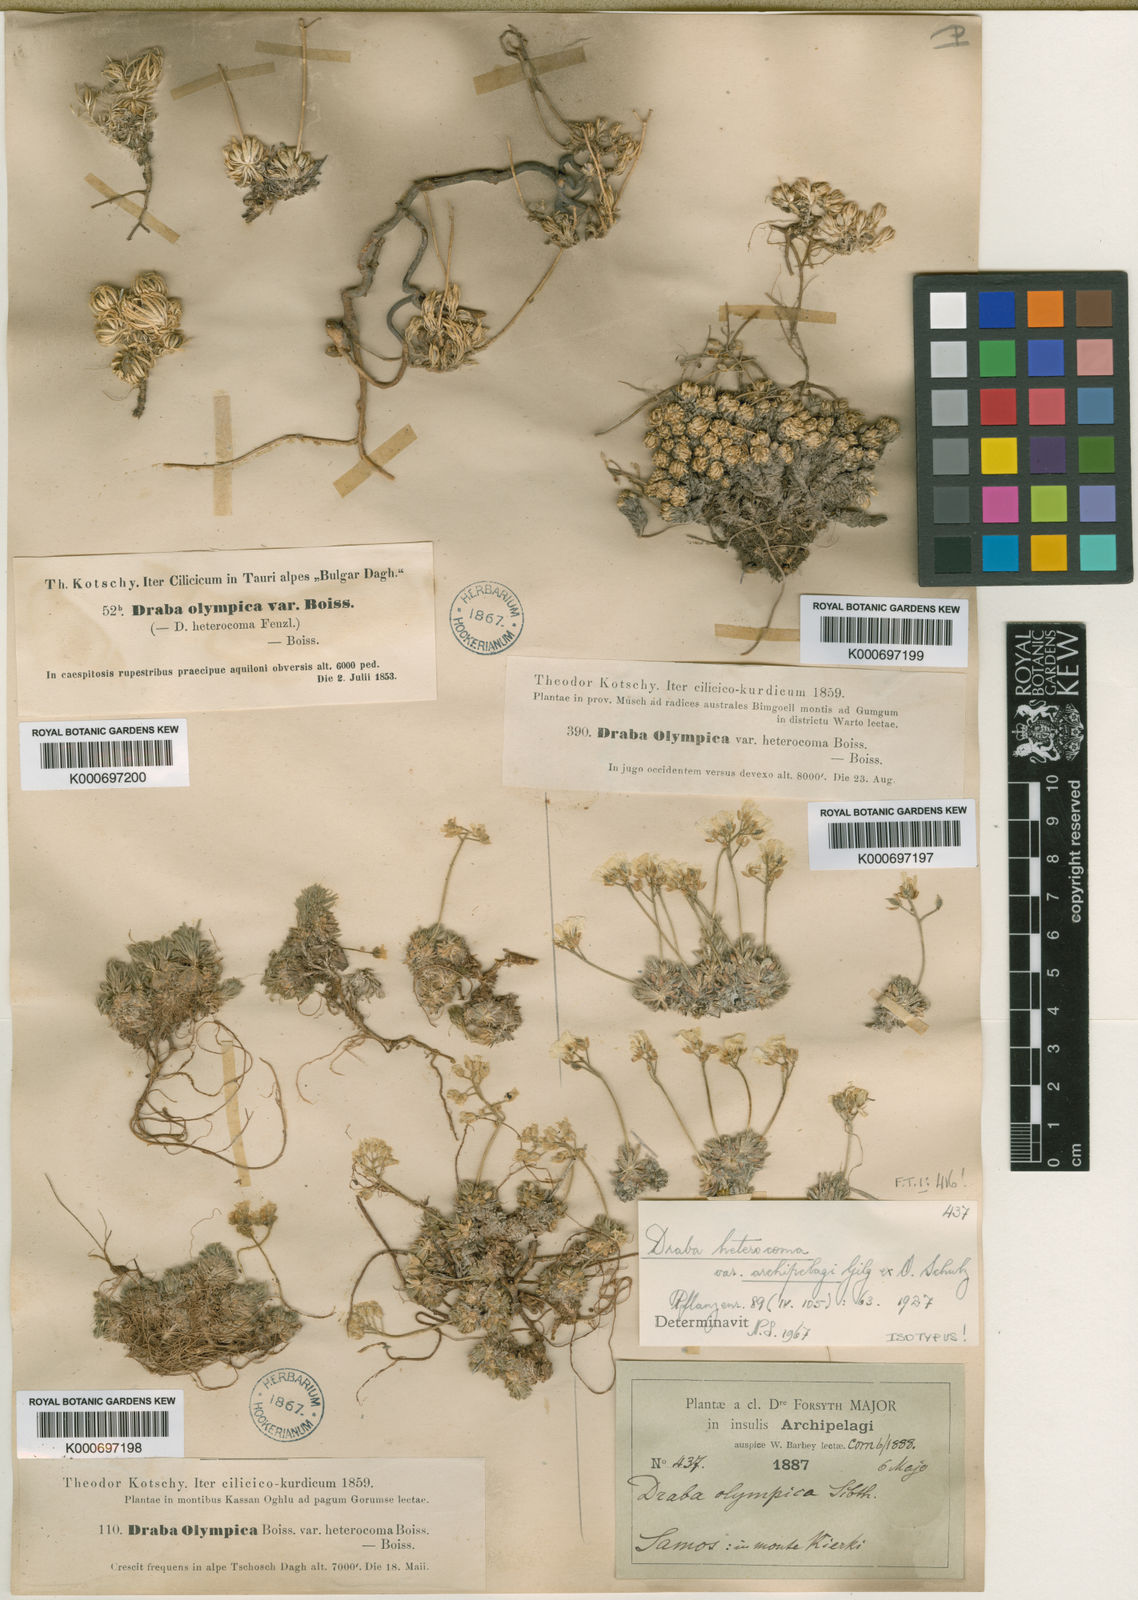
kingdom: Plantae
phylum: Tracheophyta
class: Magnoliopsida
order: Brassicales
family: Brassicaceae
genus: Draba
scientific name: Draba bruniifolia
